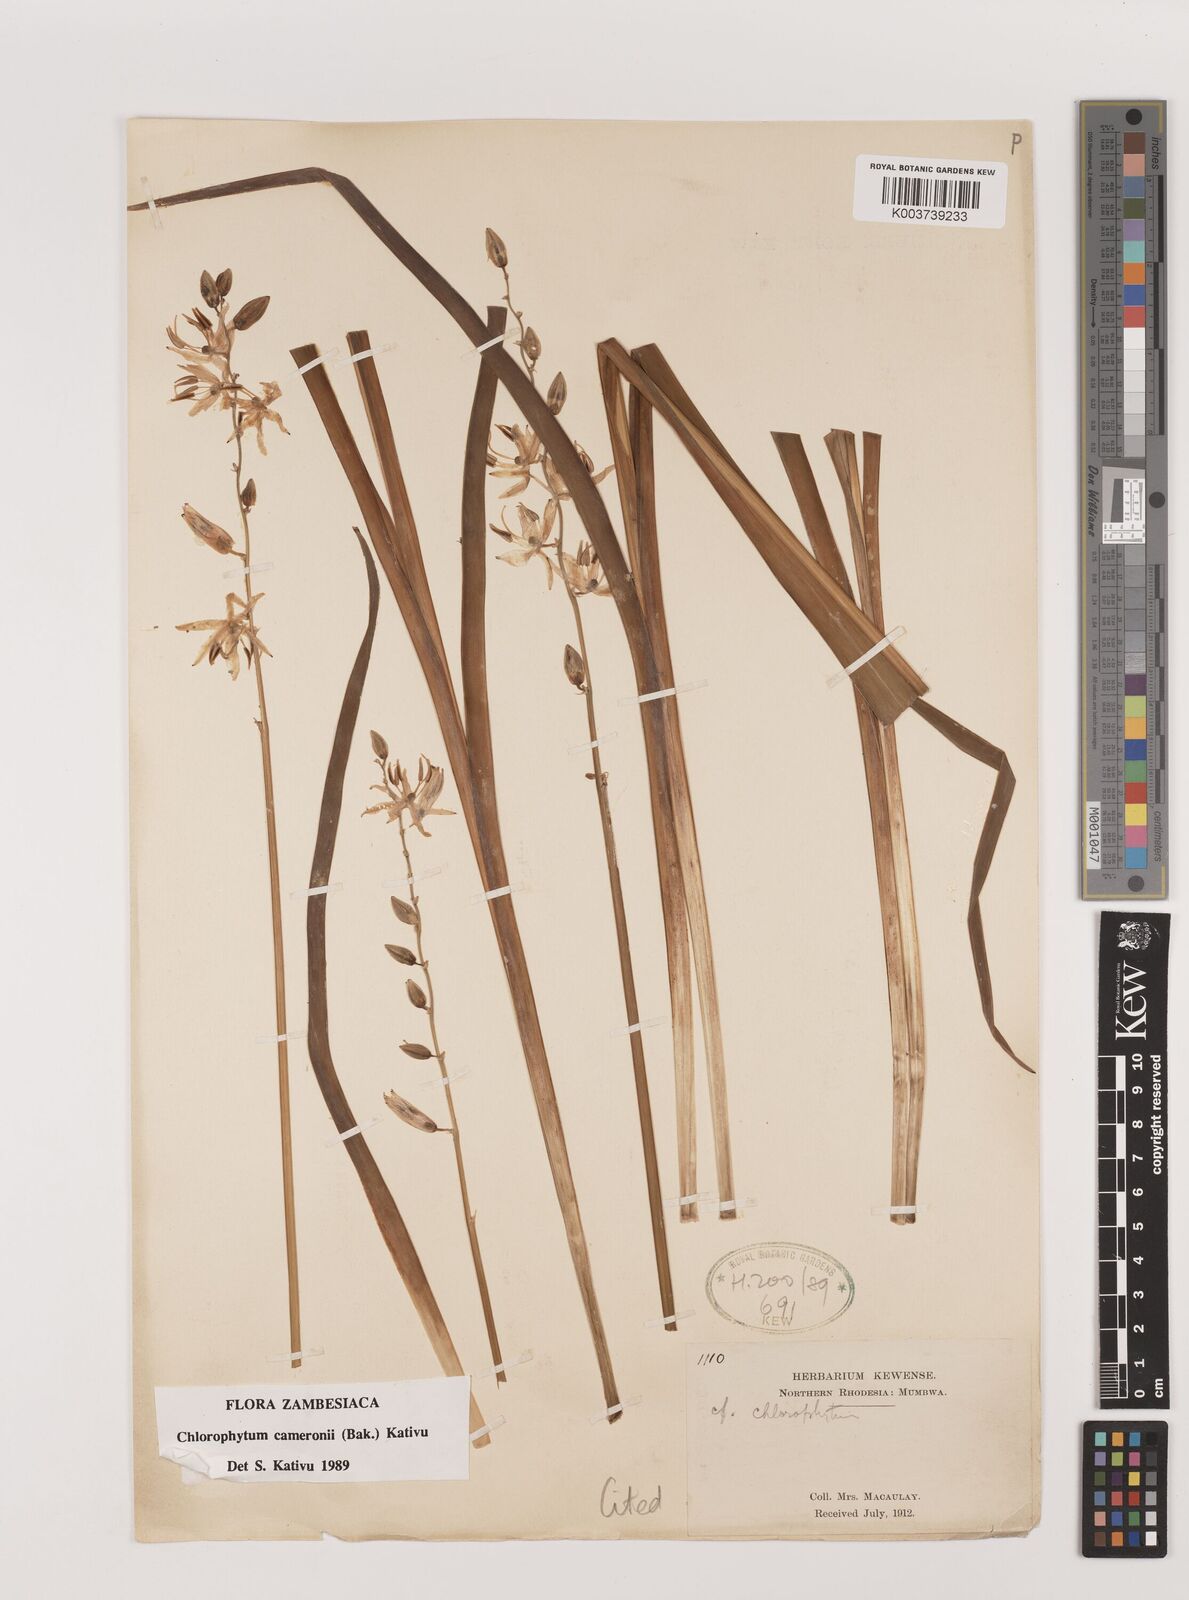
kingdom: Plantae
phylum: Tracheophyta
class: Liliopsida
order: Asparagales
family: Asparagaceae
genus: Chlorophytum
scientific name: Chlorophytum cameronii
